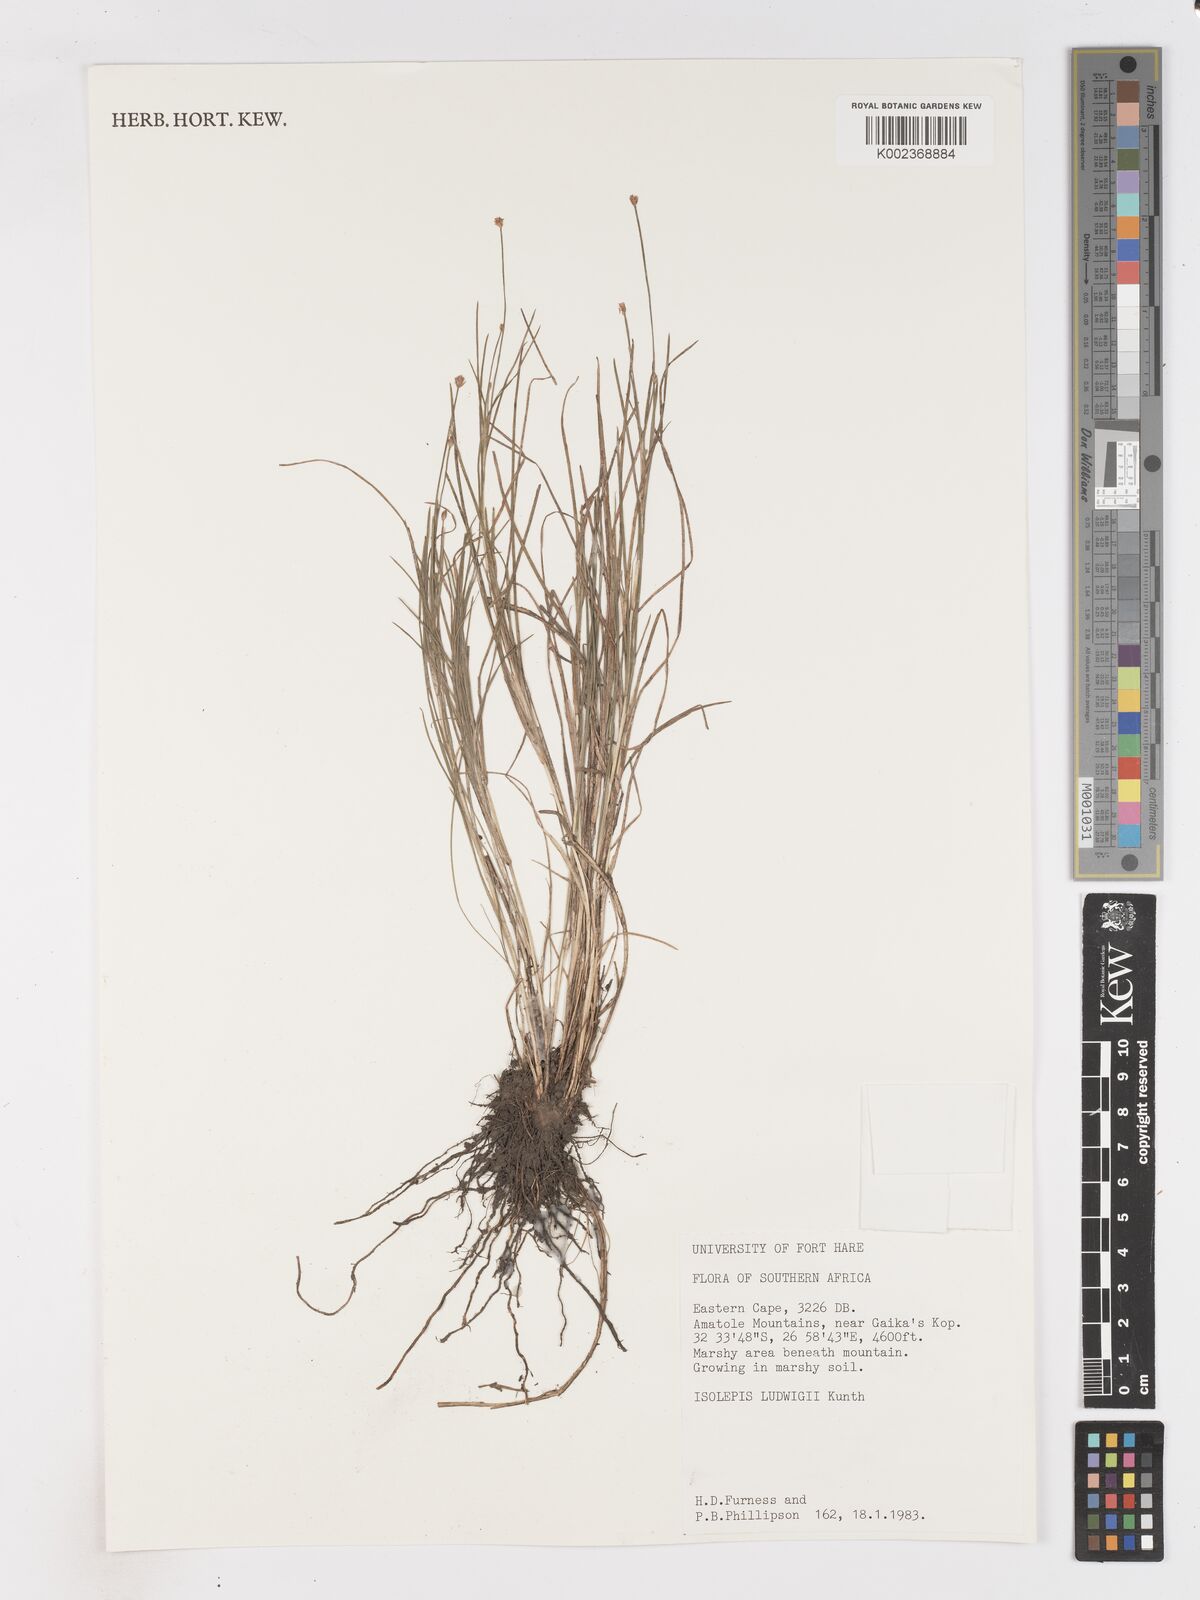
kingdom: Plantae
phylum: Tracheophyta
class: Liliopsida
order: Poales
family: Cyperaceae
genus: Isolepis
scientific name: Isolepis fluitans
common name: Floating club-rush
